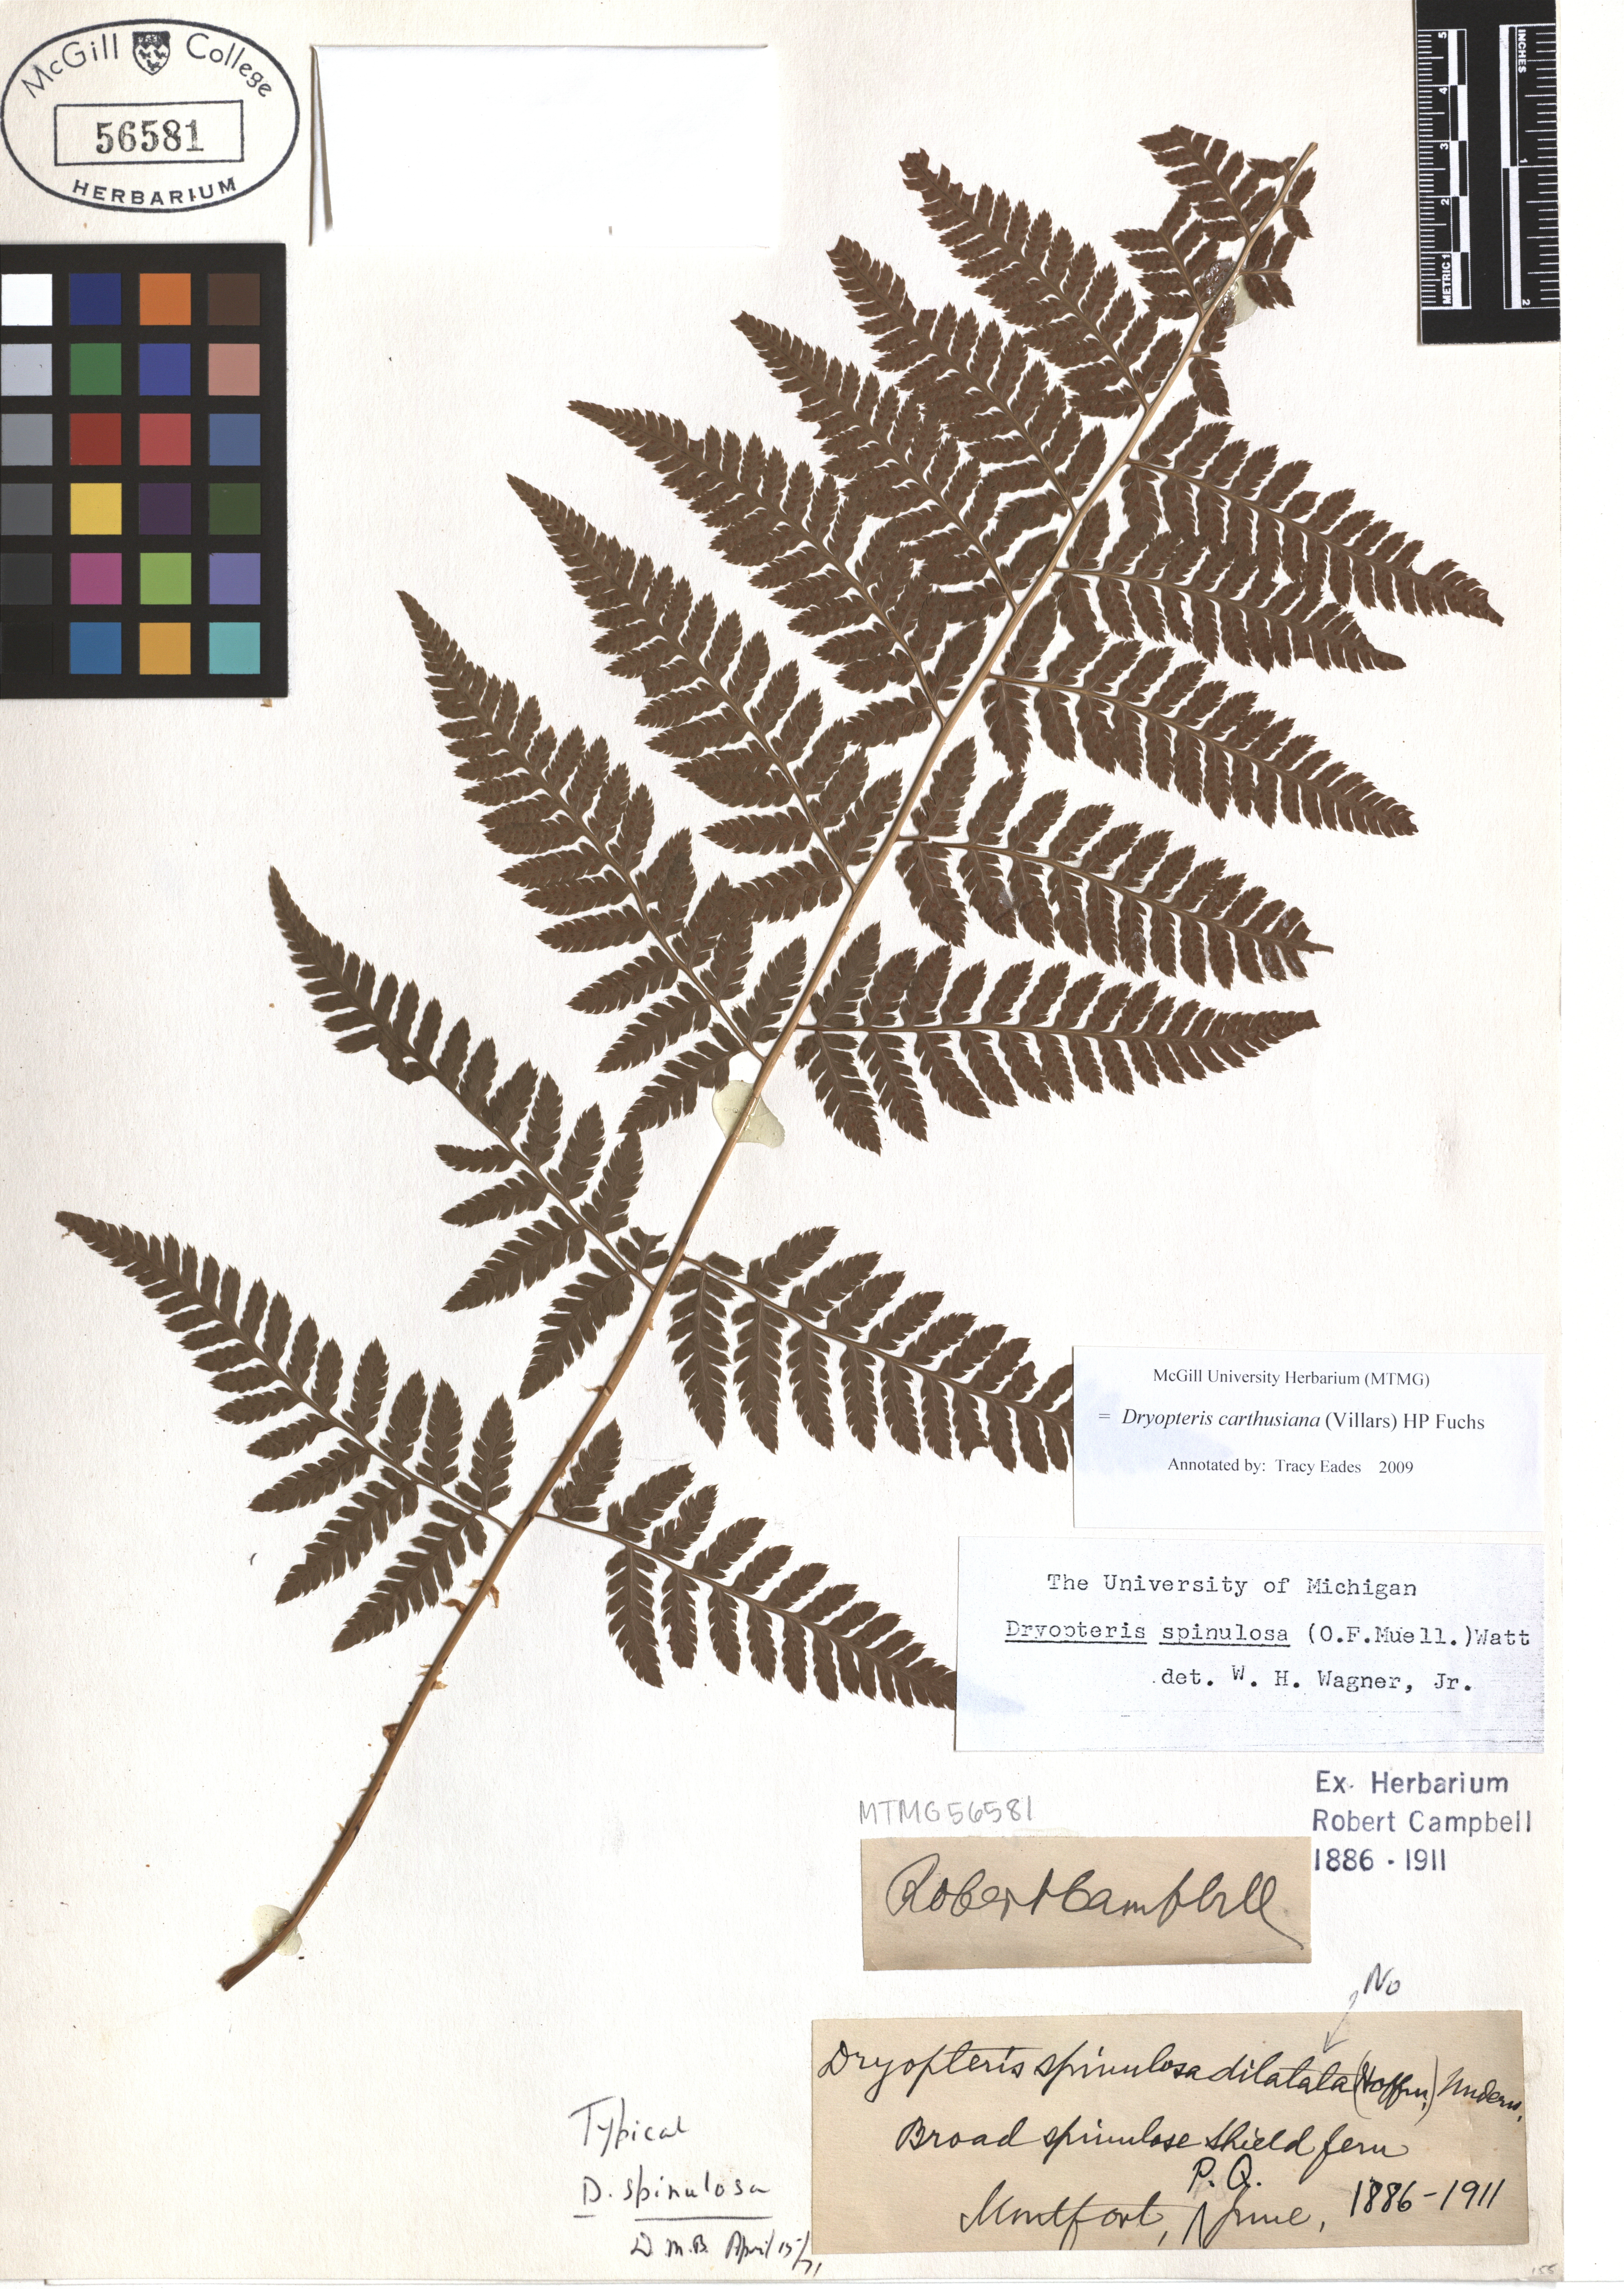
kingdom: Plantae
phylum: Tracheophyta
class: Polypodiopsida
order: Polypodiales
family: Dryopteridaceae
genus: Dryopteris
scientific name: Dryopteris carthusiana
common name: Narrow buckler-fern
